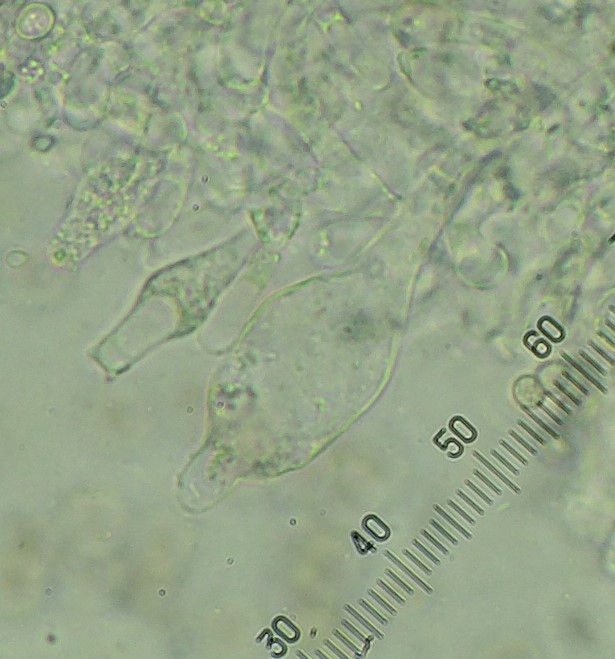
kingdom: Fungi
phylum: Basidiomycota
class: Agaricomycetes
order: Agaricales
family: Pluteaceae
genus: Pluteus
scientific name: Pluteus semibulbosus
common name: knoldet skærmhat
